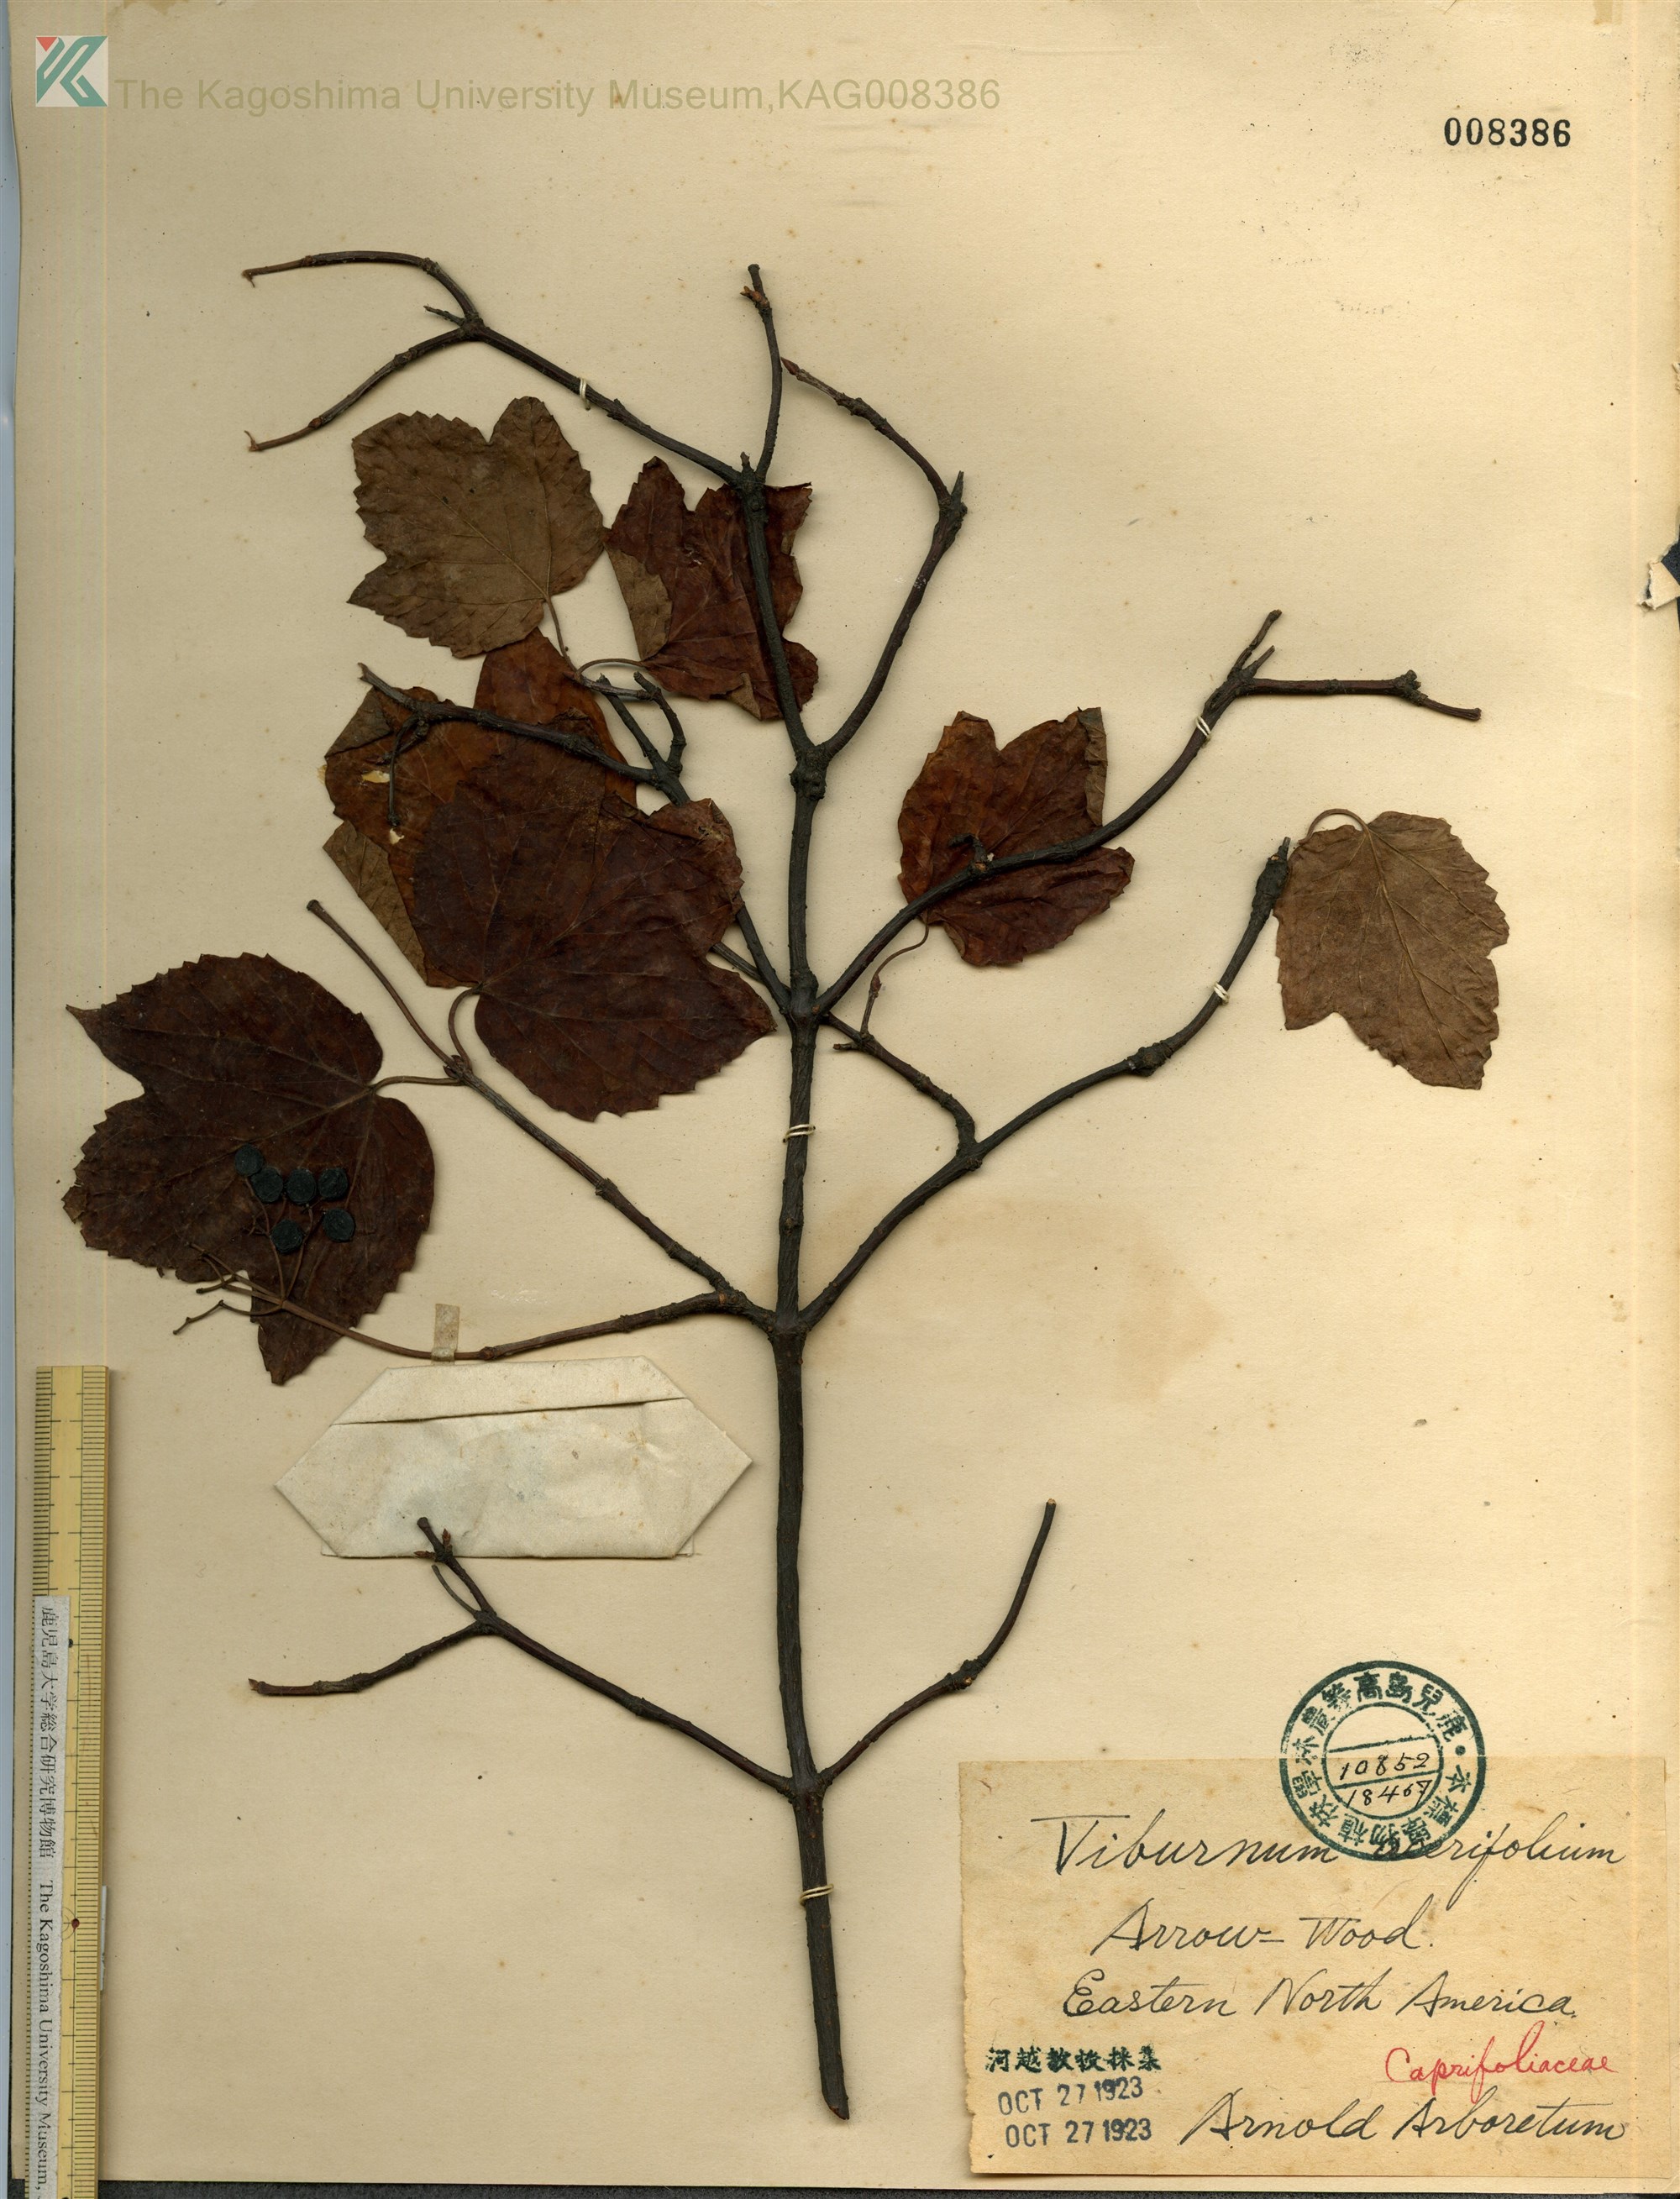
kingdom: Plantae
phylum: Tracheophyta
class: Magnoliopsida
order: Dipsacales
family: Viburnaceae
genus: Viburnum
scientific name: Viburnum acerifolium
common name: Dockmackie
